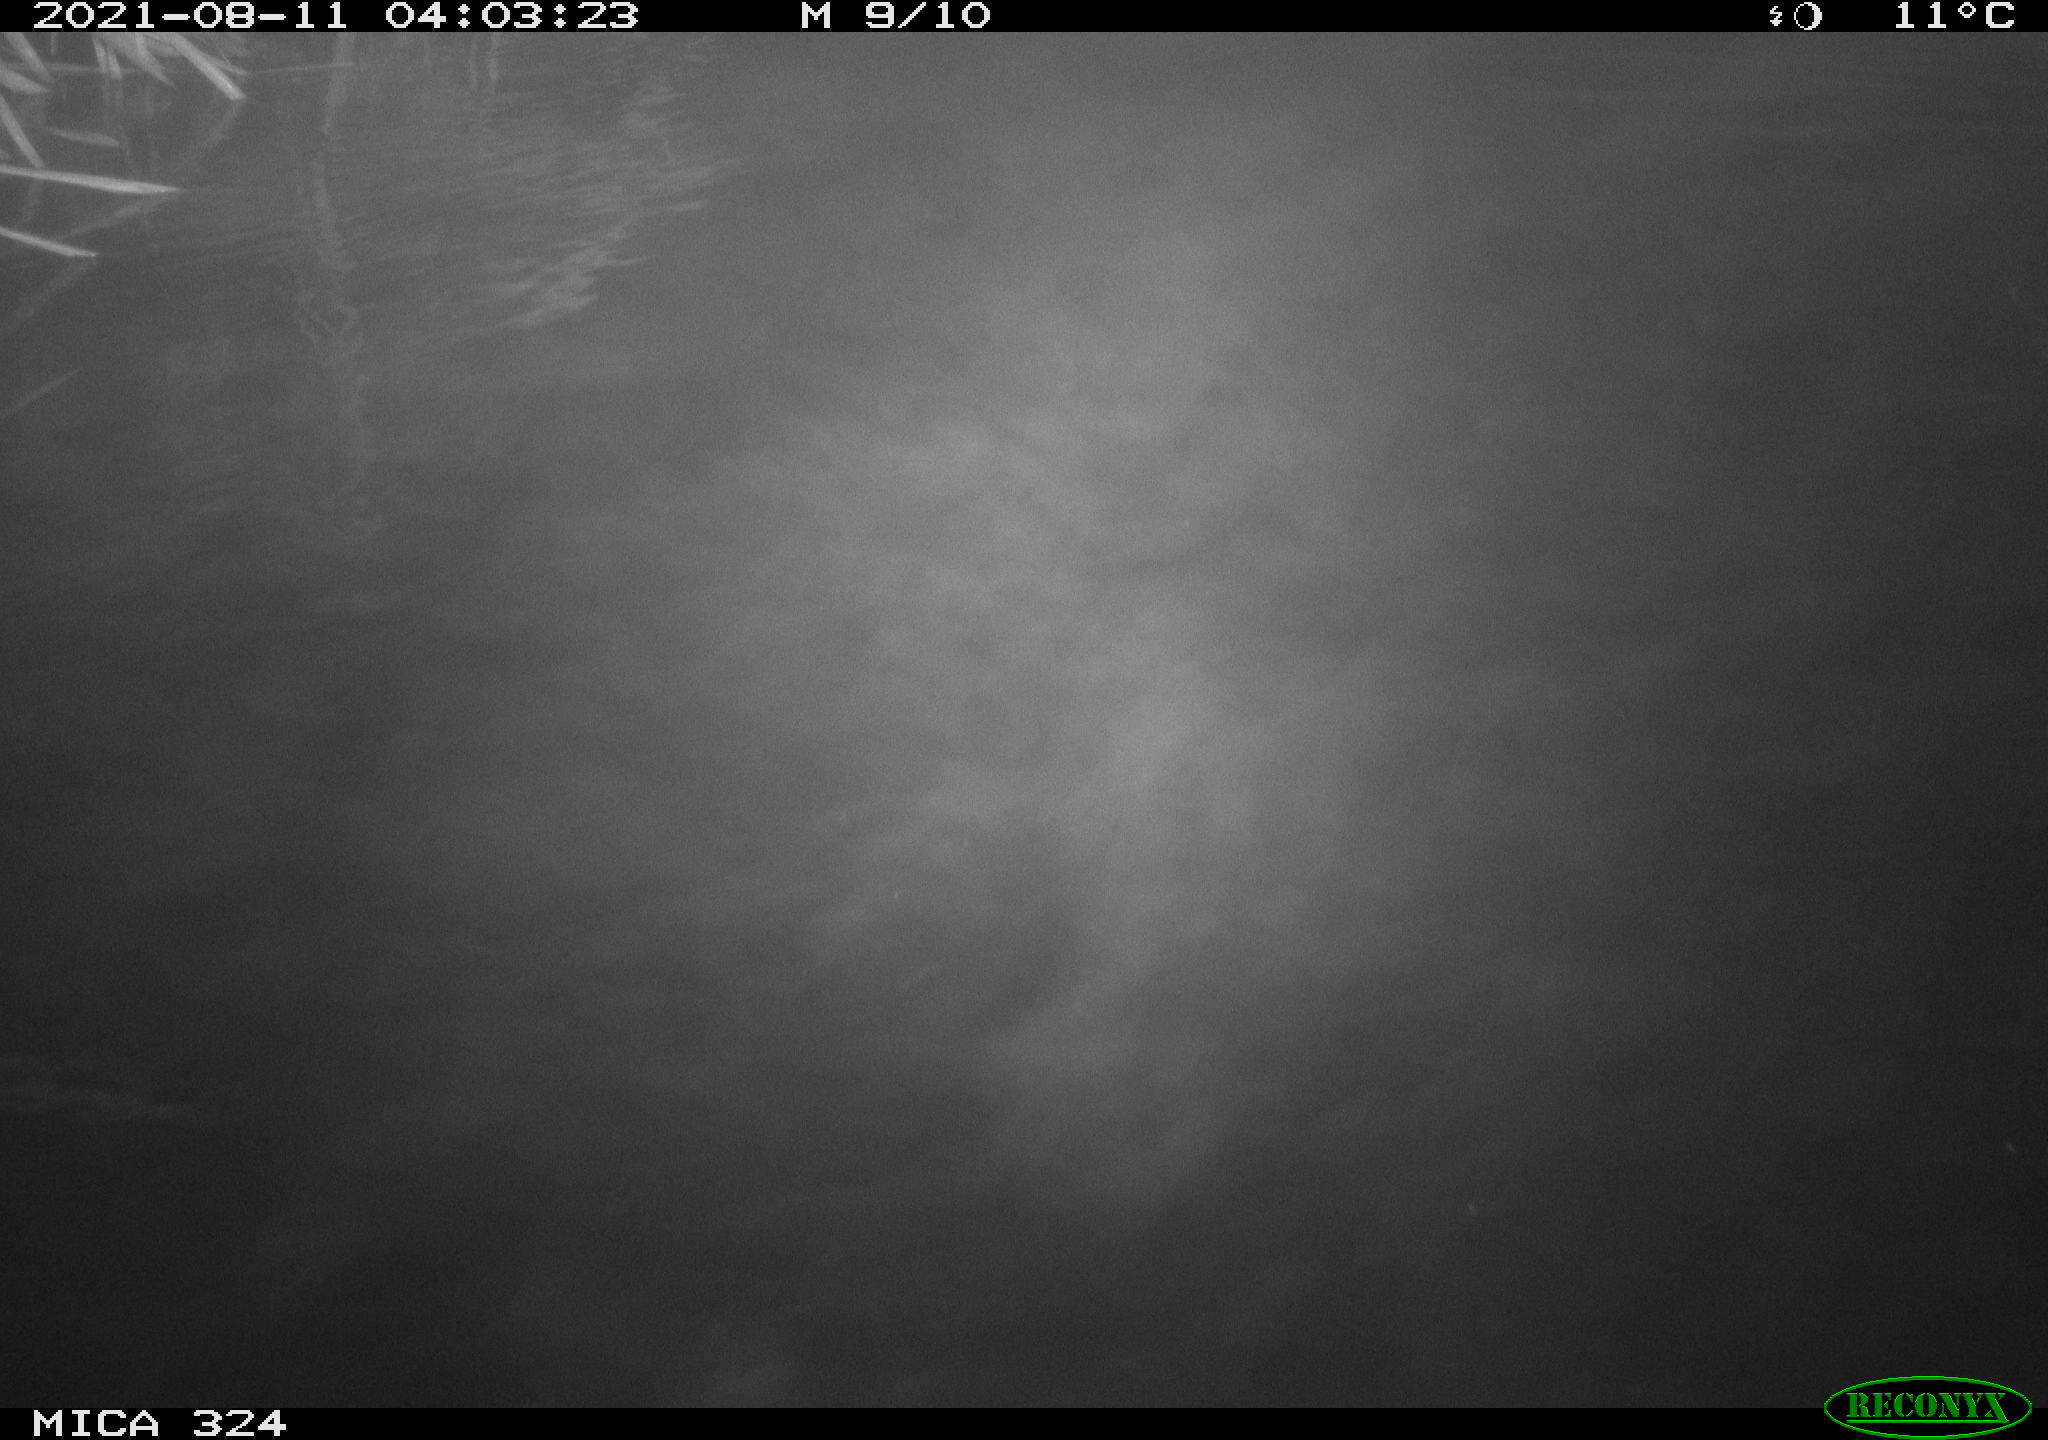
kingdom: Animalia
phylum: Chordata
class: Mammalia
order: Rodentia
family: Cricetidae
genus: Ondatra
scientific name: Ondatra zibethicus
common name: Muskrat
